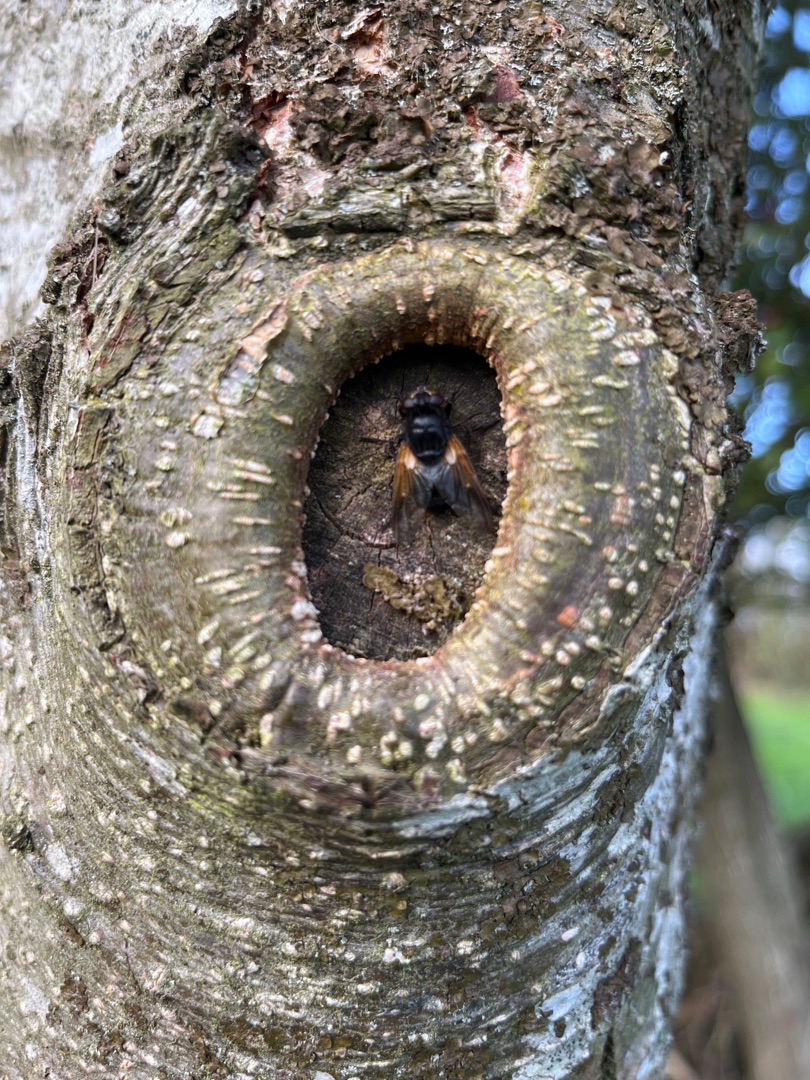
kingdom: Animalia
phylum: Arthropoda
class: Insecta
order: Diptera
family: Muscidae
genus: Mesembrina
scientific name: Mesembrina meridiana
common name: Gulvinget flue
